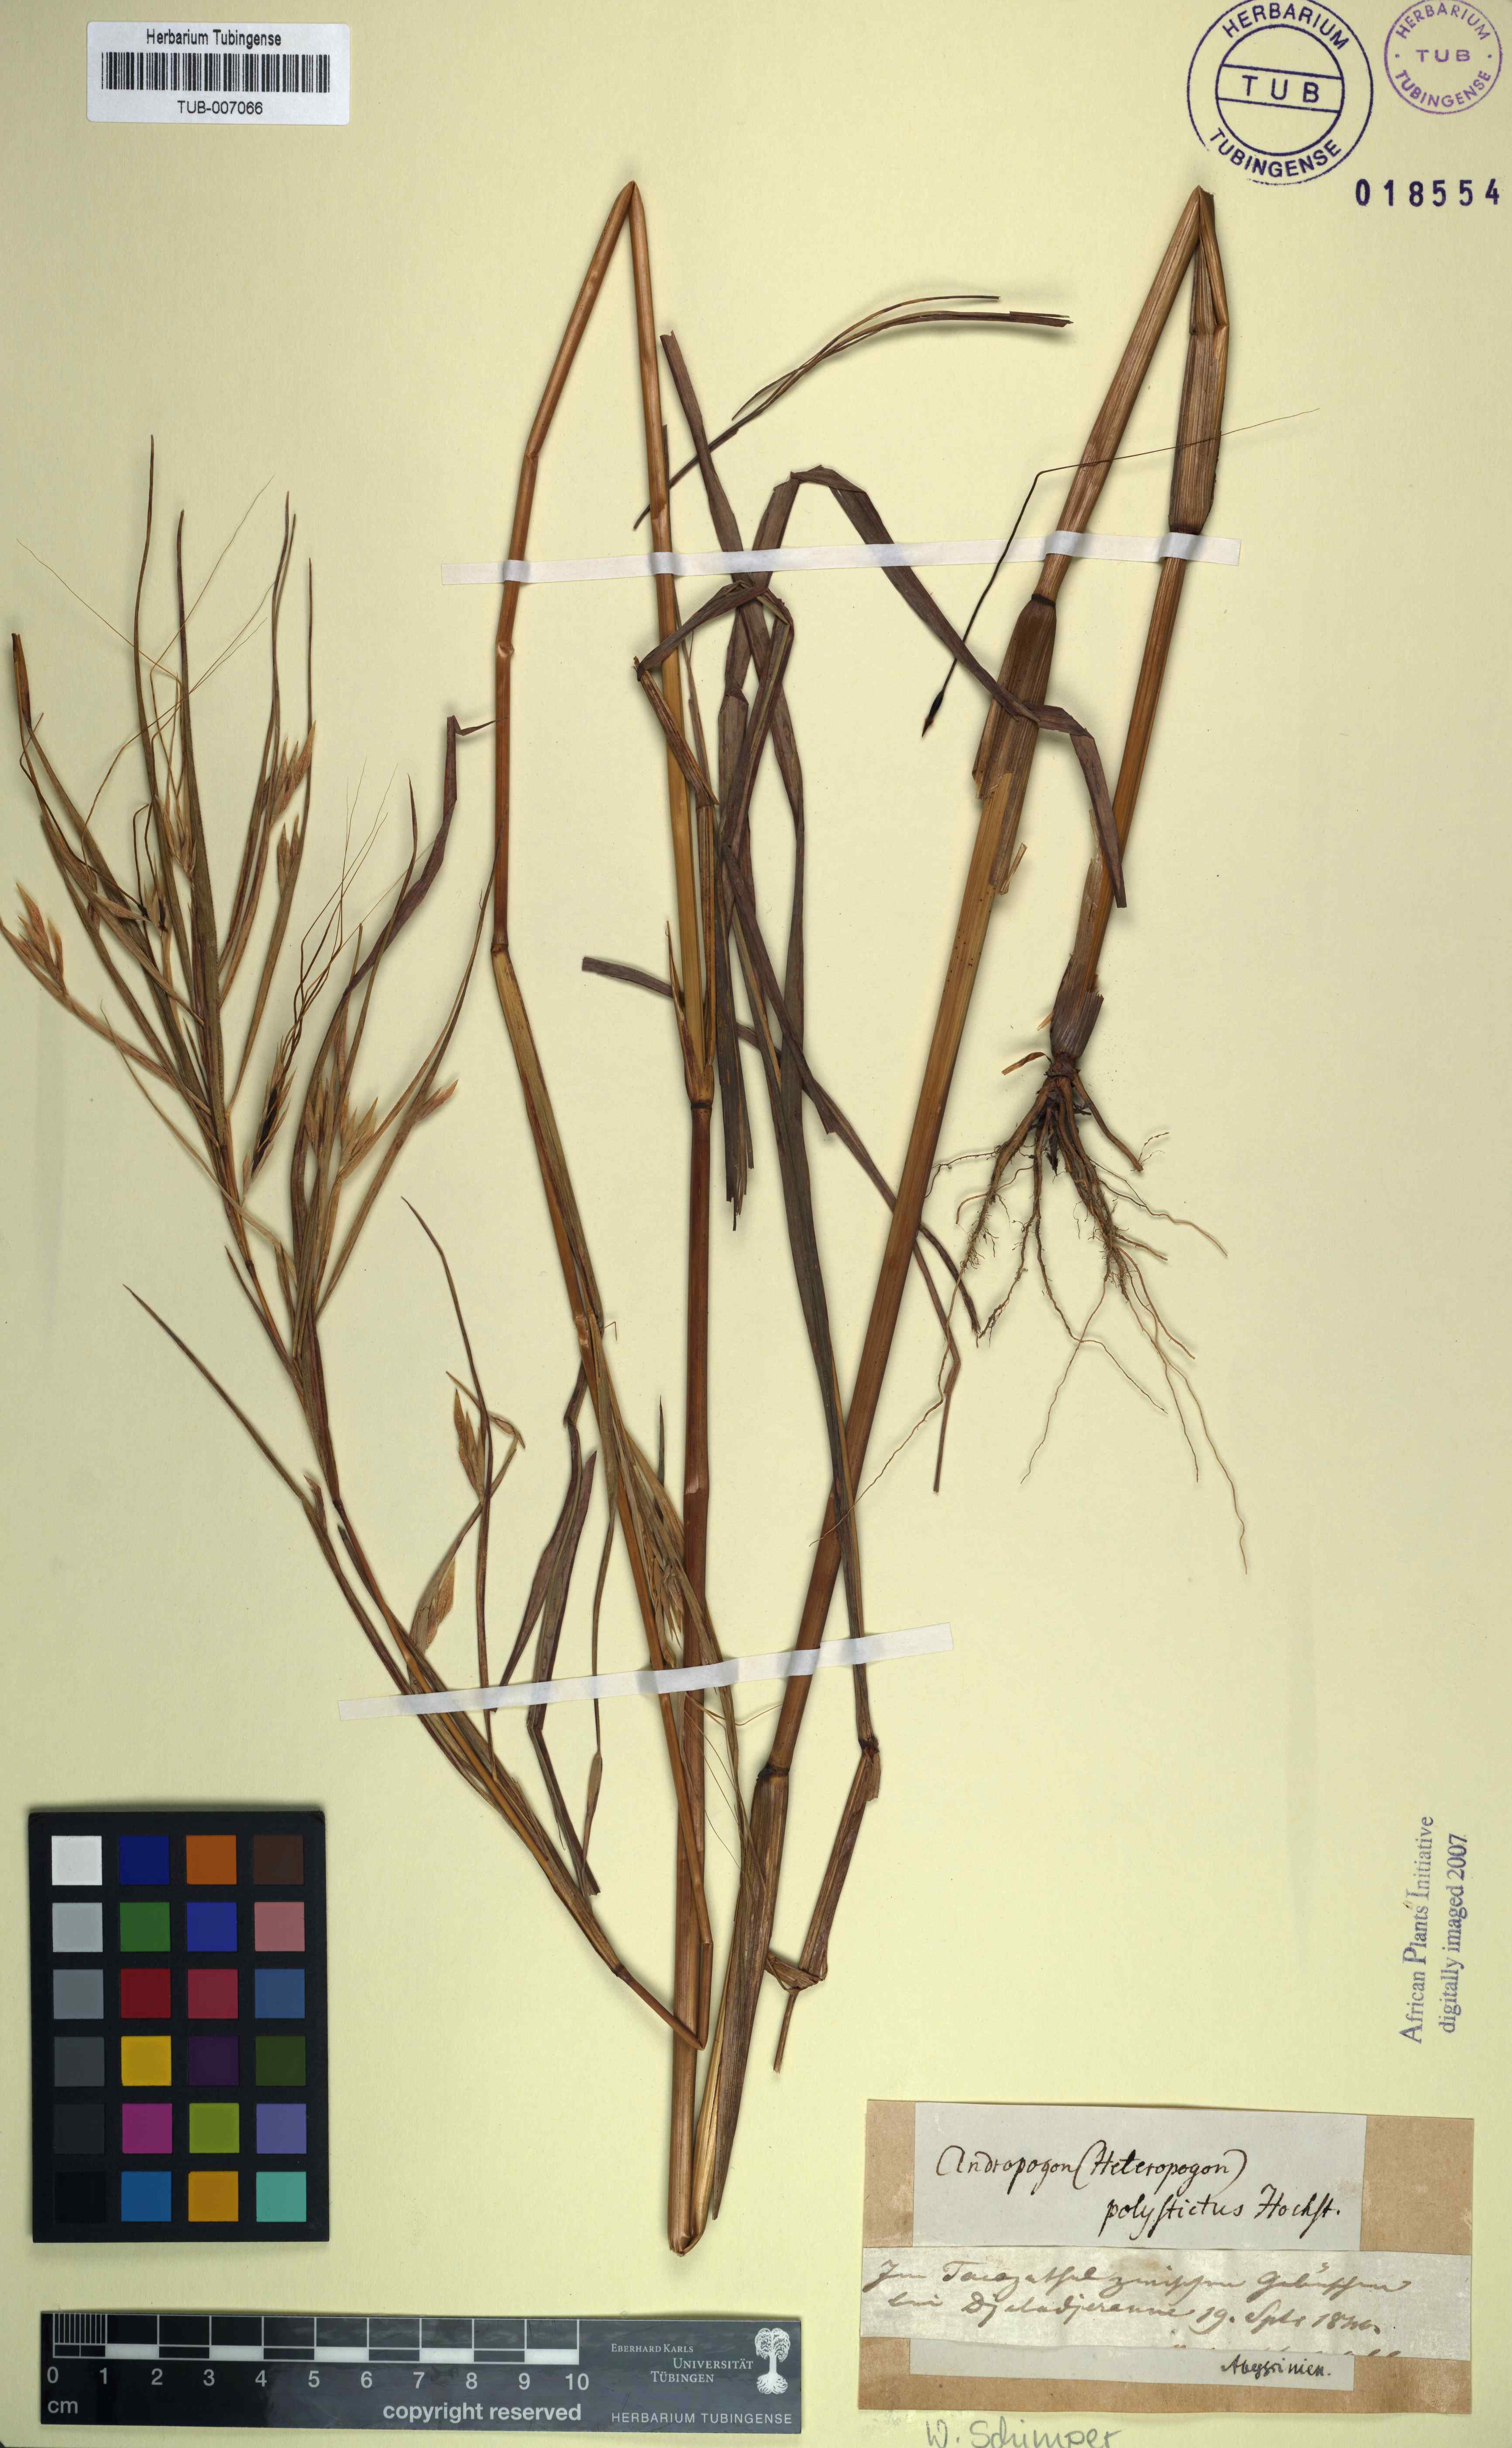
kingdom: Plantae
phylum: Tracheophyta
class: Liliopsida
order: Poales
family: Poaceae
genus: Andropogon
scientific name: Andropogon polystichus
